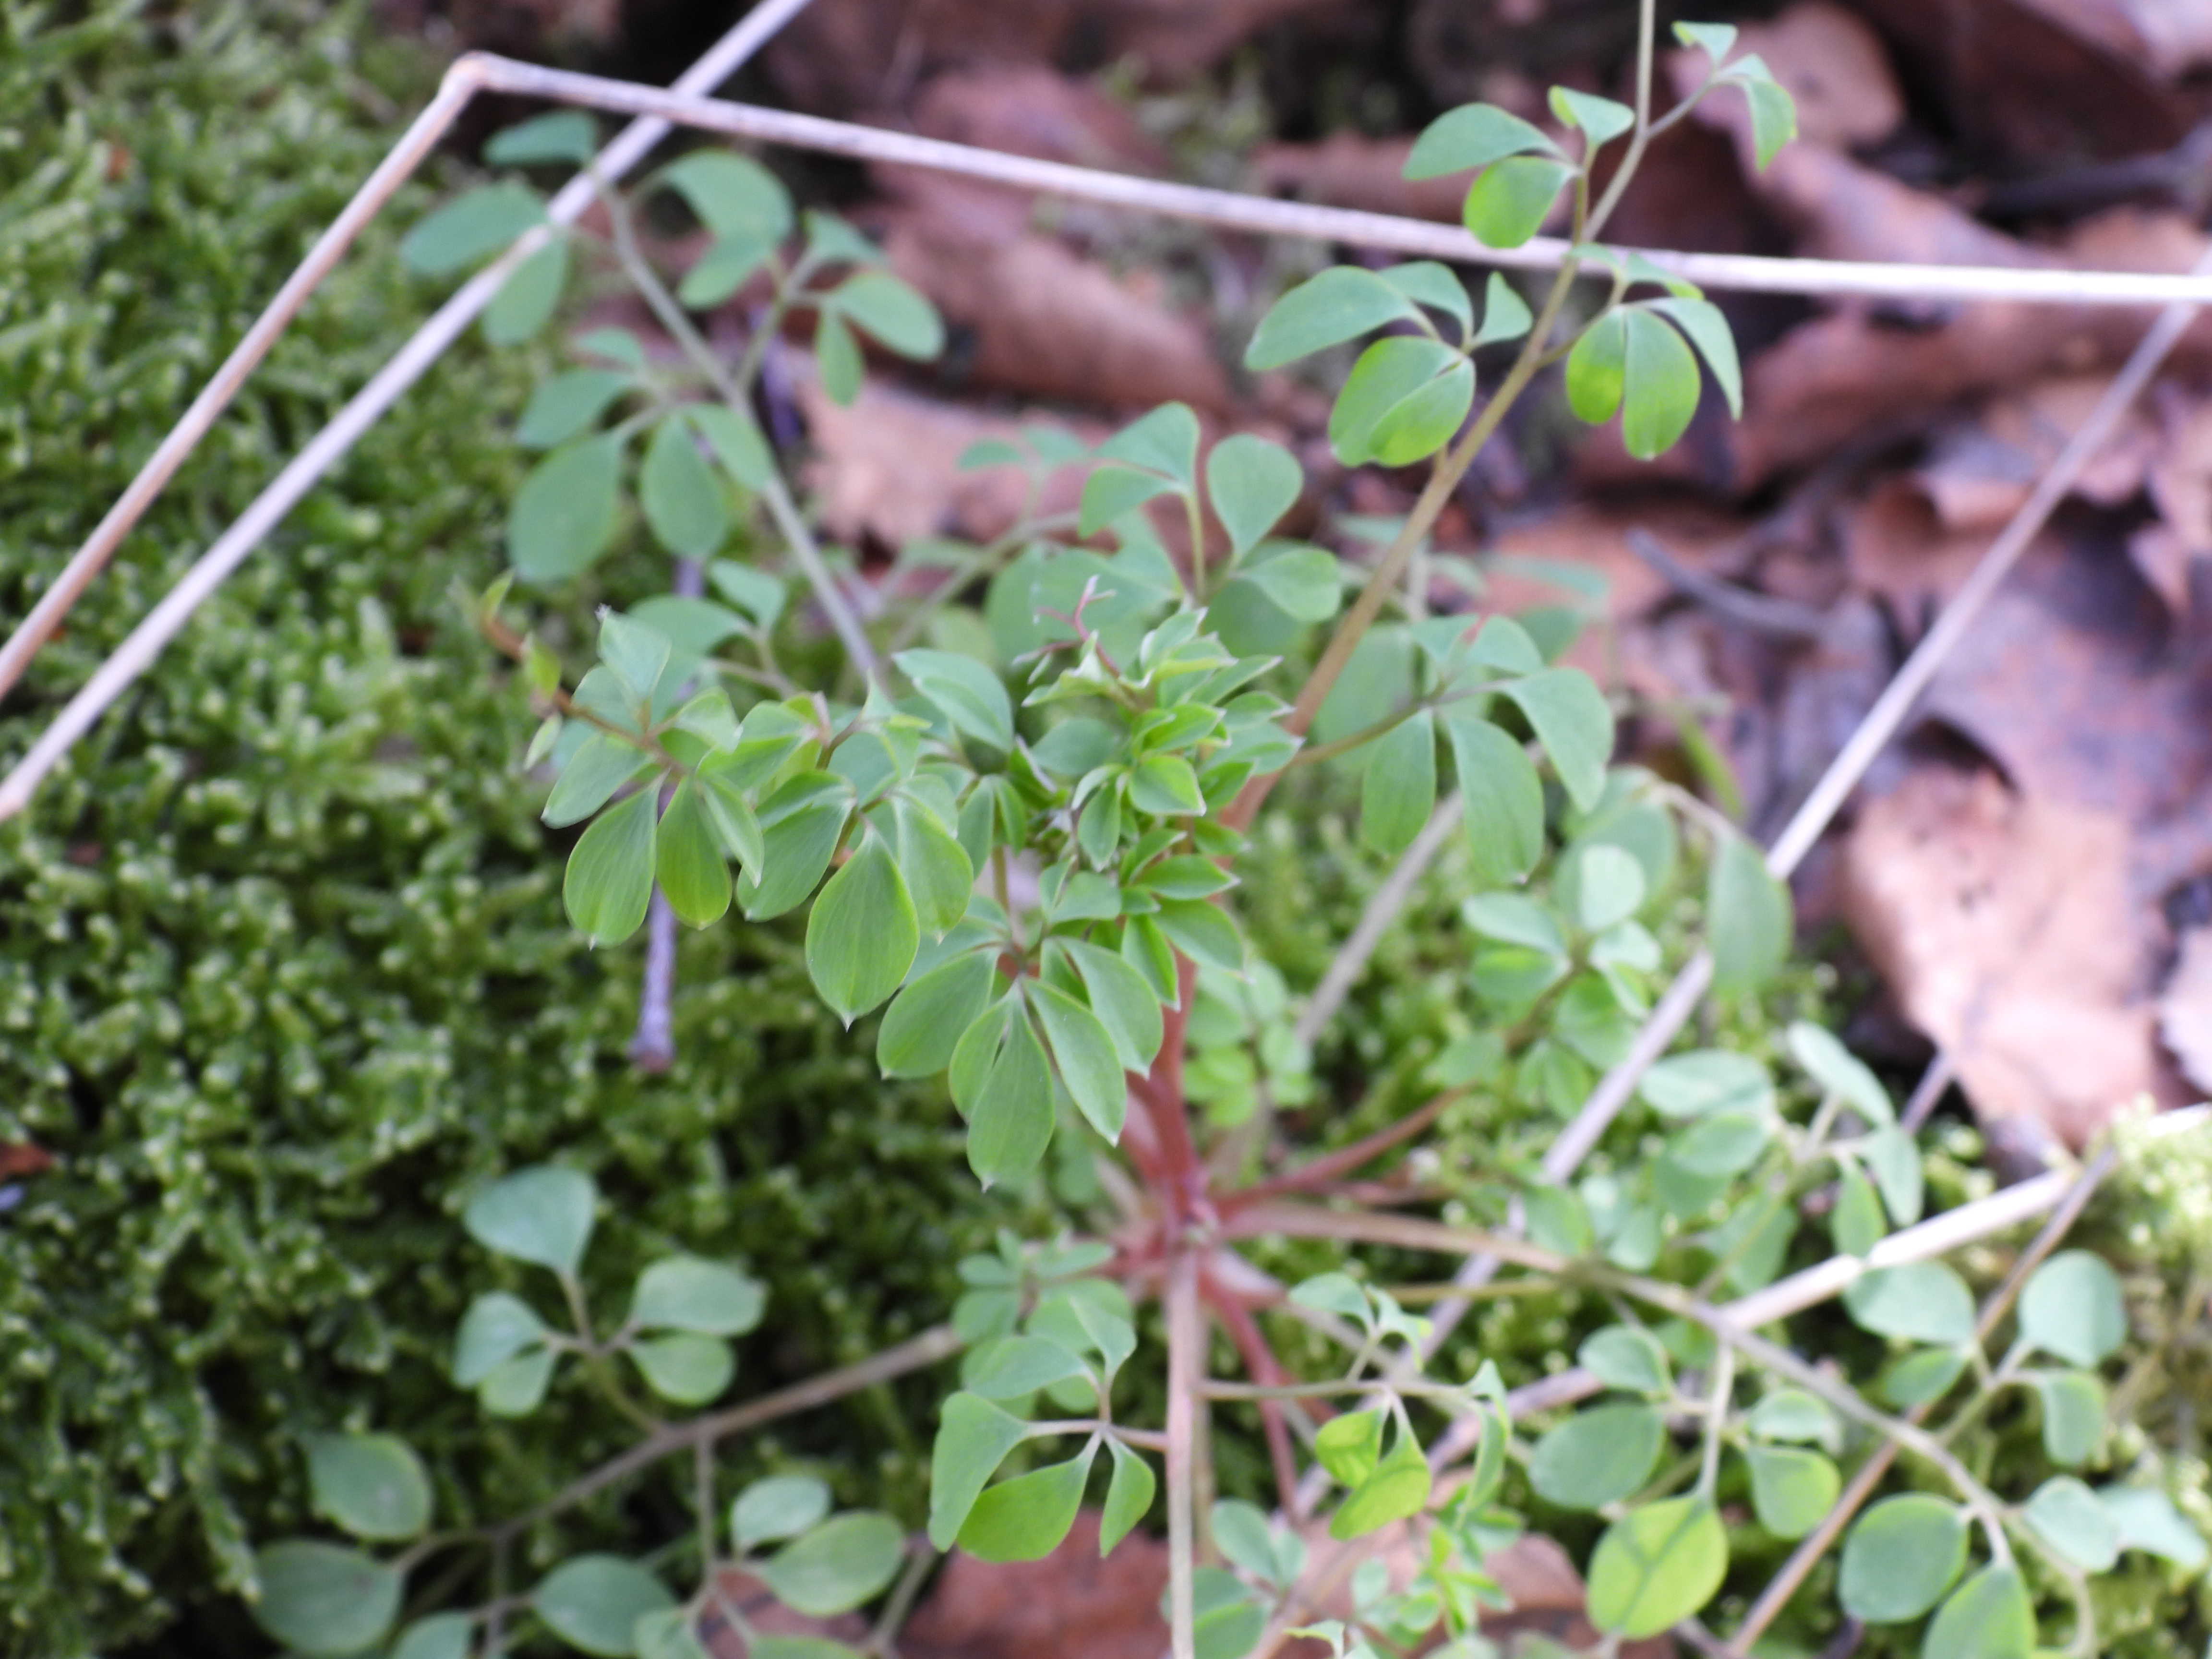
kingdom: Plantae
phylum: Tracheophyta
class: Magnoliopsida
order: Ranunculales
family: Papaveraceae
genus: Ceratocapnos
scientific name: Ceratocapnos claviculata
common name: Klatrende lærkespore
